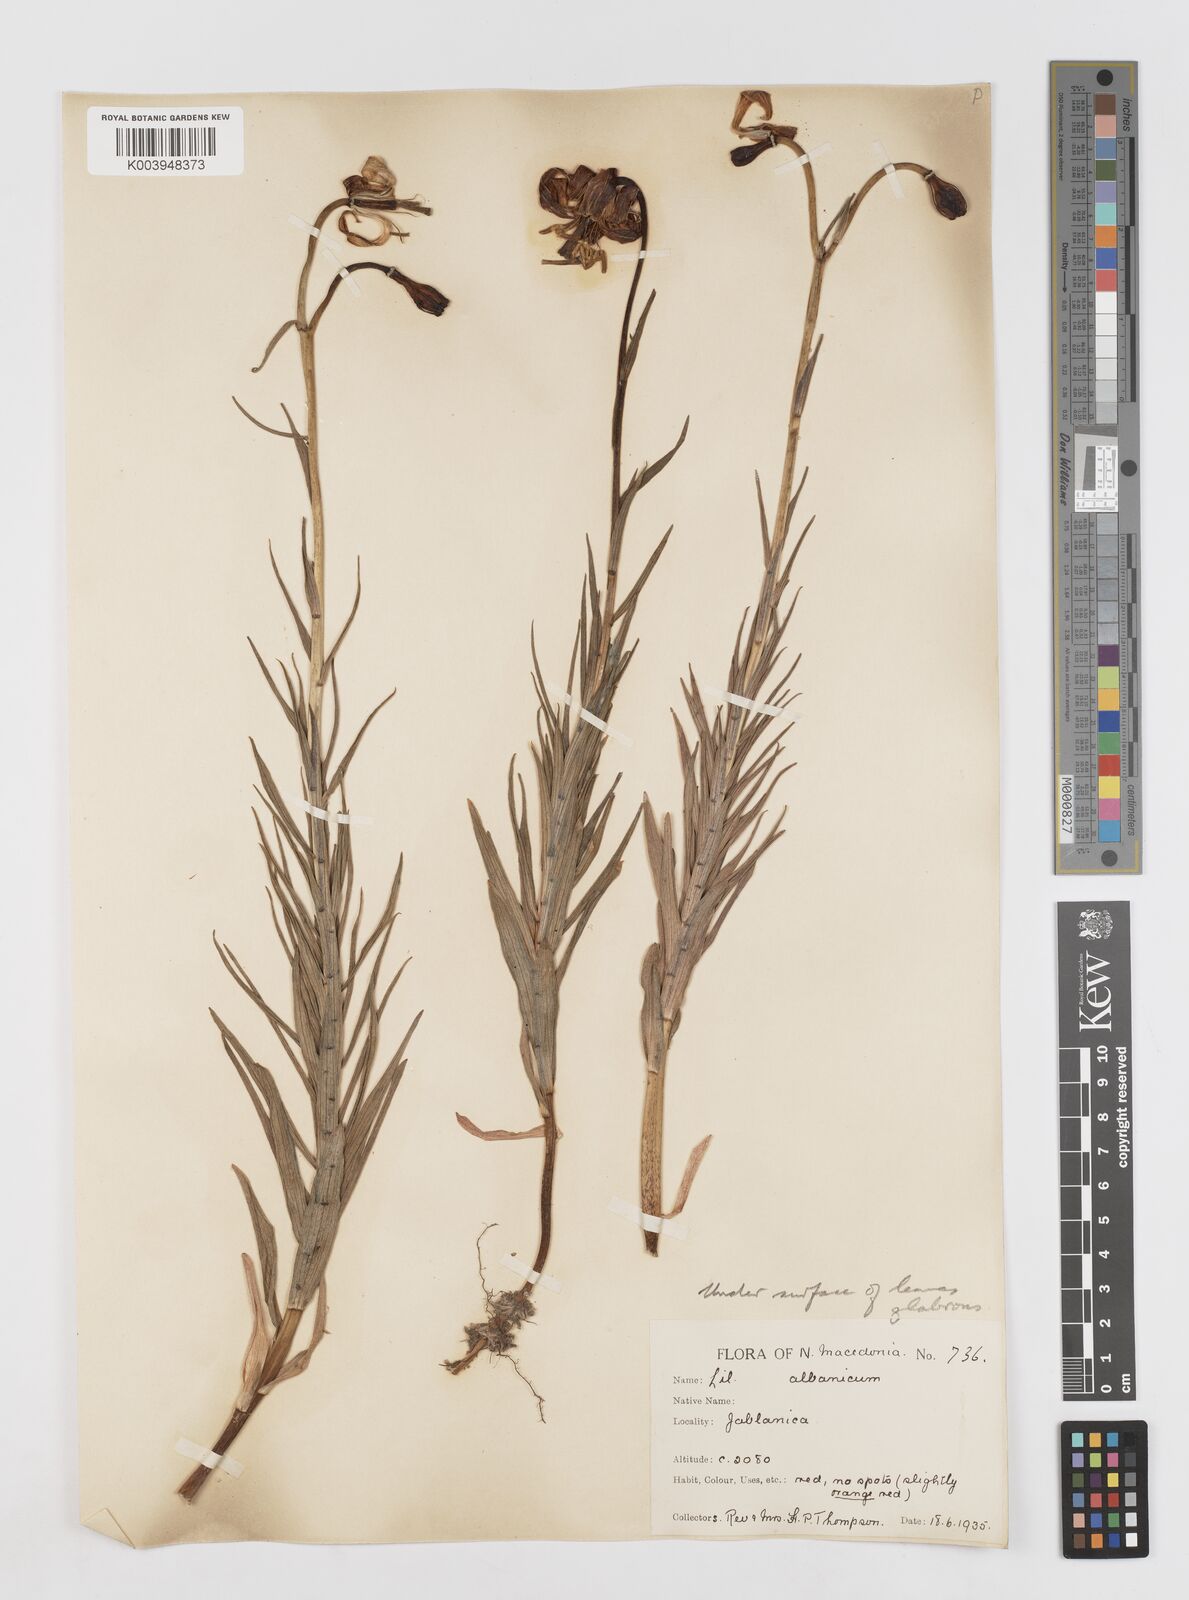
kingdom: Plantae
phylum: Tracheophyta
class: Liliopsida
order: Liliales
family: Liliaceae
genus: Lilium
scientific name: Lilium carniolicum
